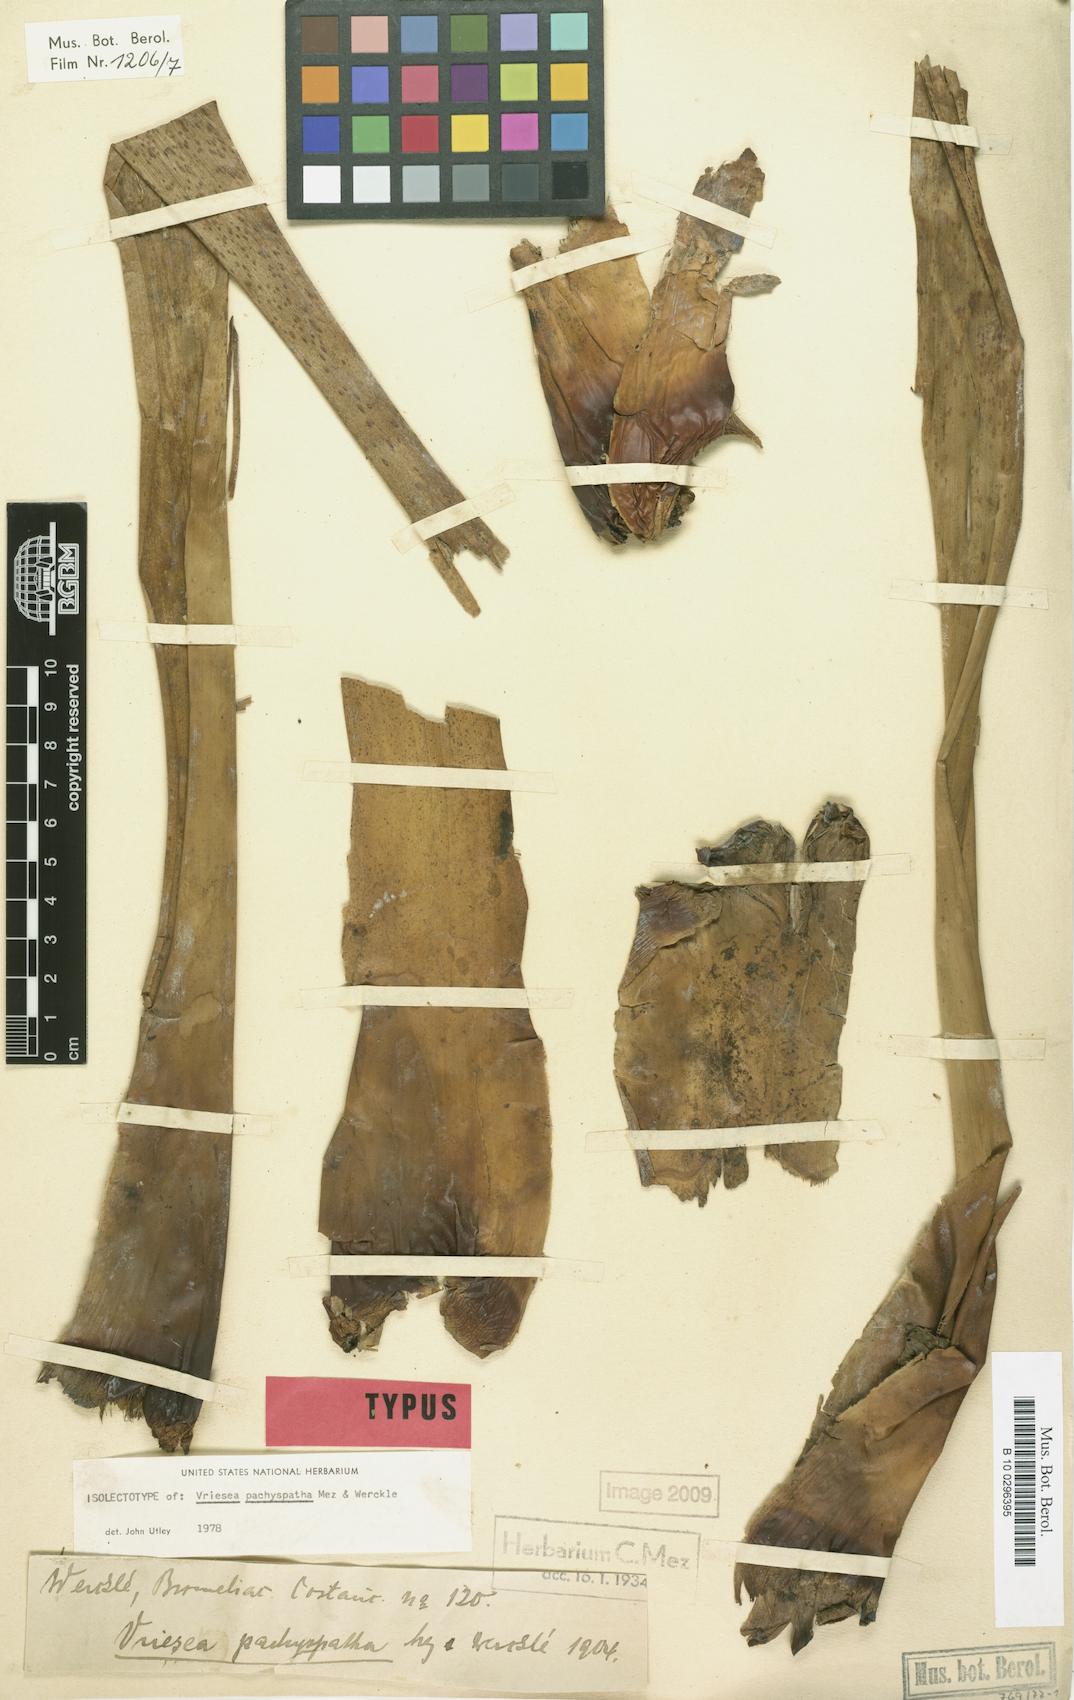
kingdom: Plantae
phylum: Tracheophyta
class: Liliopsida
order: Poales
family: Bromeliaceae
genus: Werauhia
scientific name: Werauhia gladioliflora
